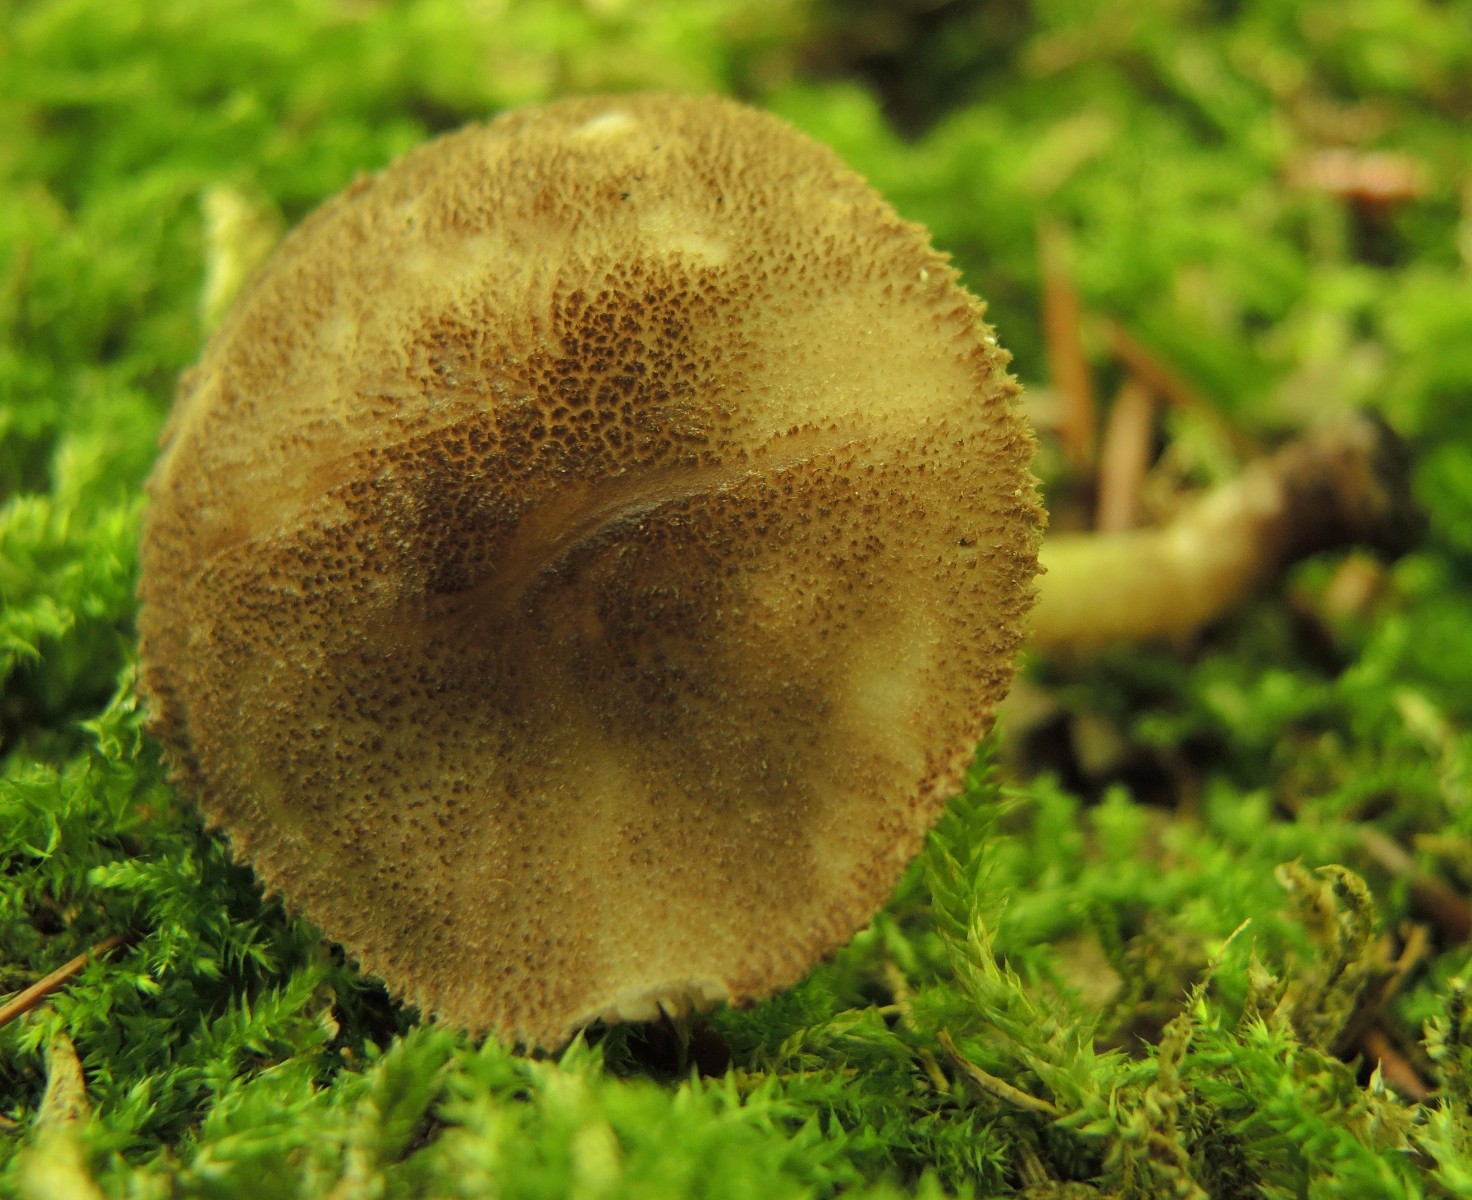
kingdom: Fungi
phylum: Basidiomycota
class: Agaricomycetes
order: Agaricales
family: Pluteaceae
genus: Pluteus
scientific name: Pluteus umbrosus
